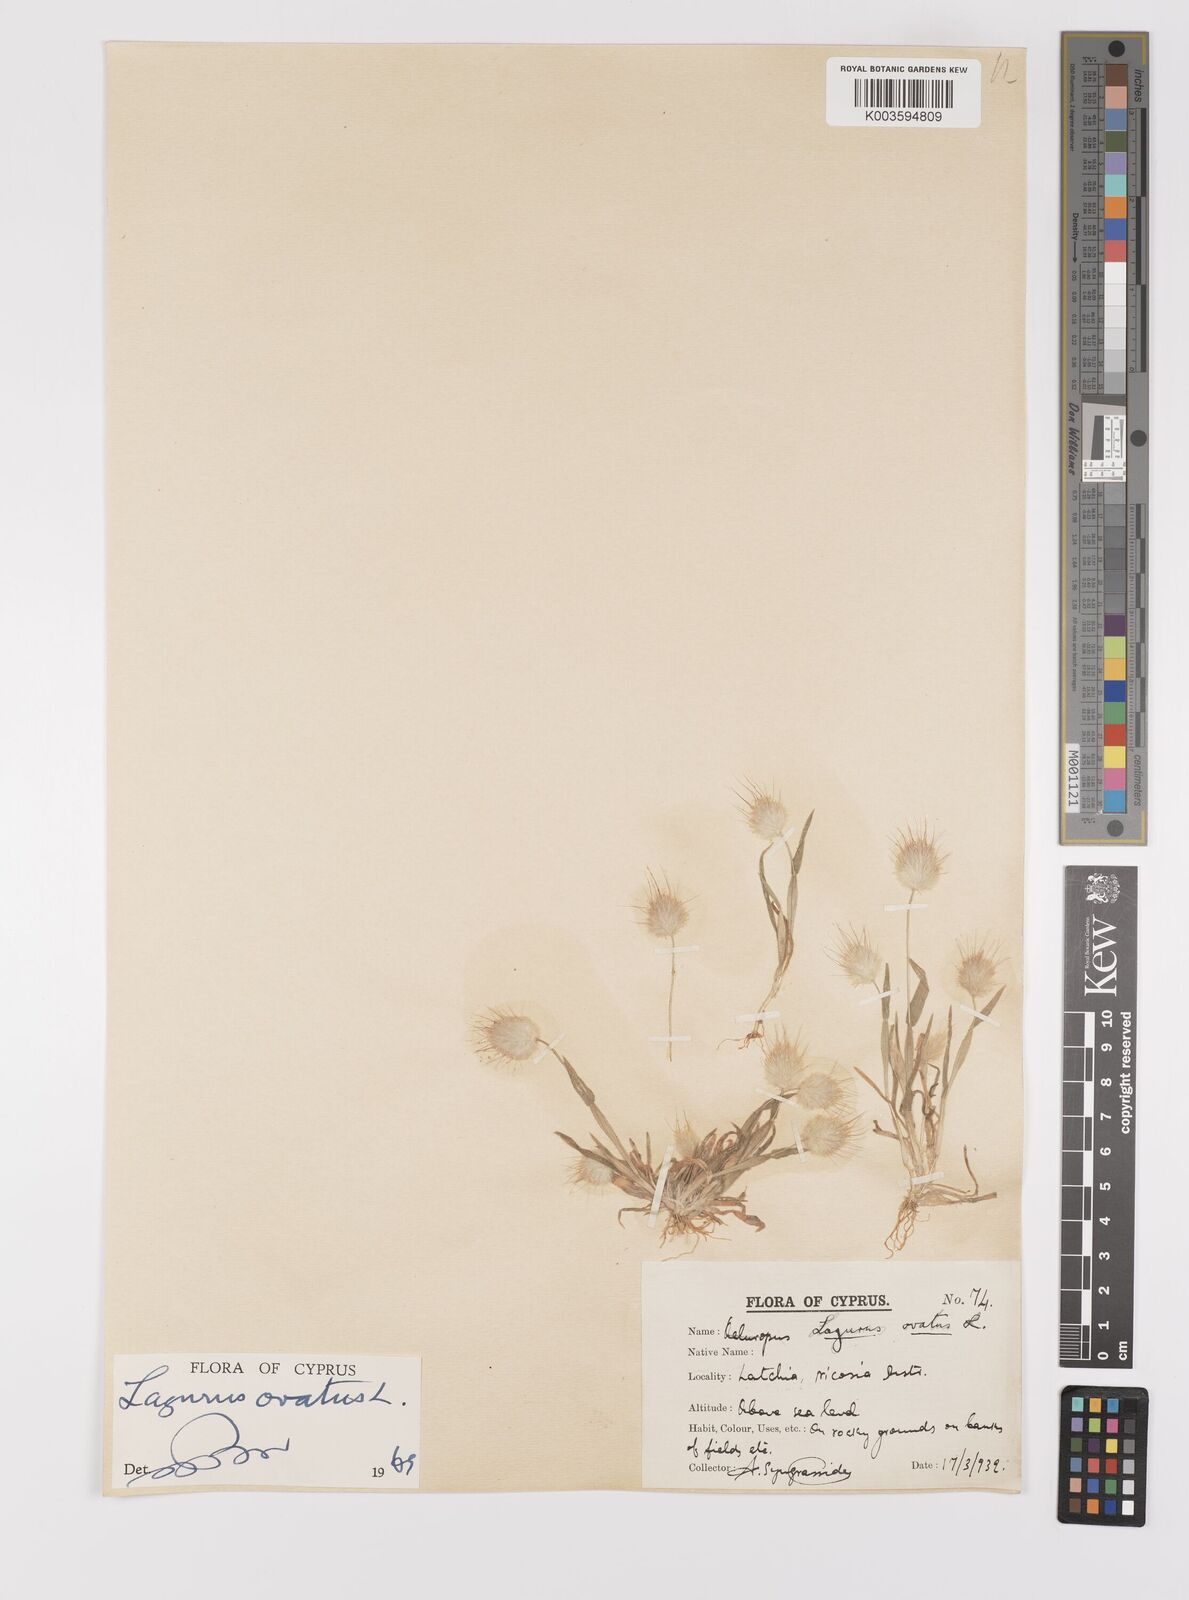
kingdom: Plantae
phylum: Tracheophyta
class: Liliopsida
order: Poales
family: Poaceae
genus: Lagurus
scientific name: Lagurus ovatus
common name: Hare's-tail
